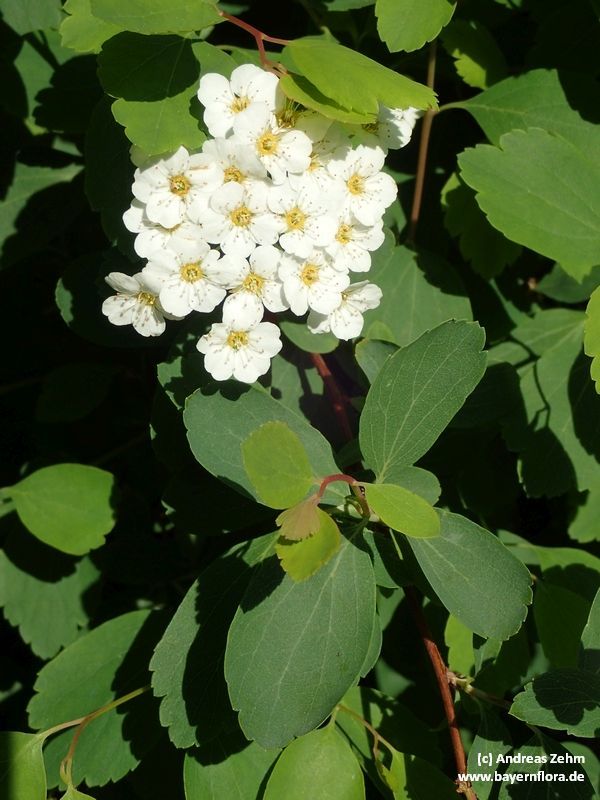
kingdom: Plantae
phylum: Tracheophyta
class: Magnoliopsida
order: Rosales
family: Rosaceae
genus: Spiraea
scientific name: Spiraea vanhouttei
